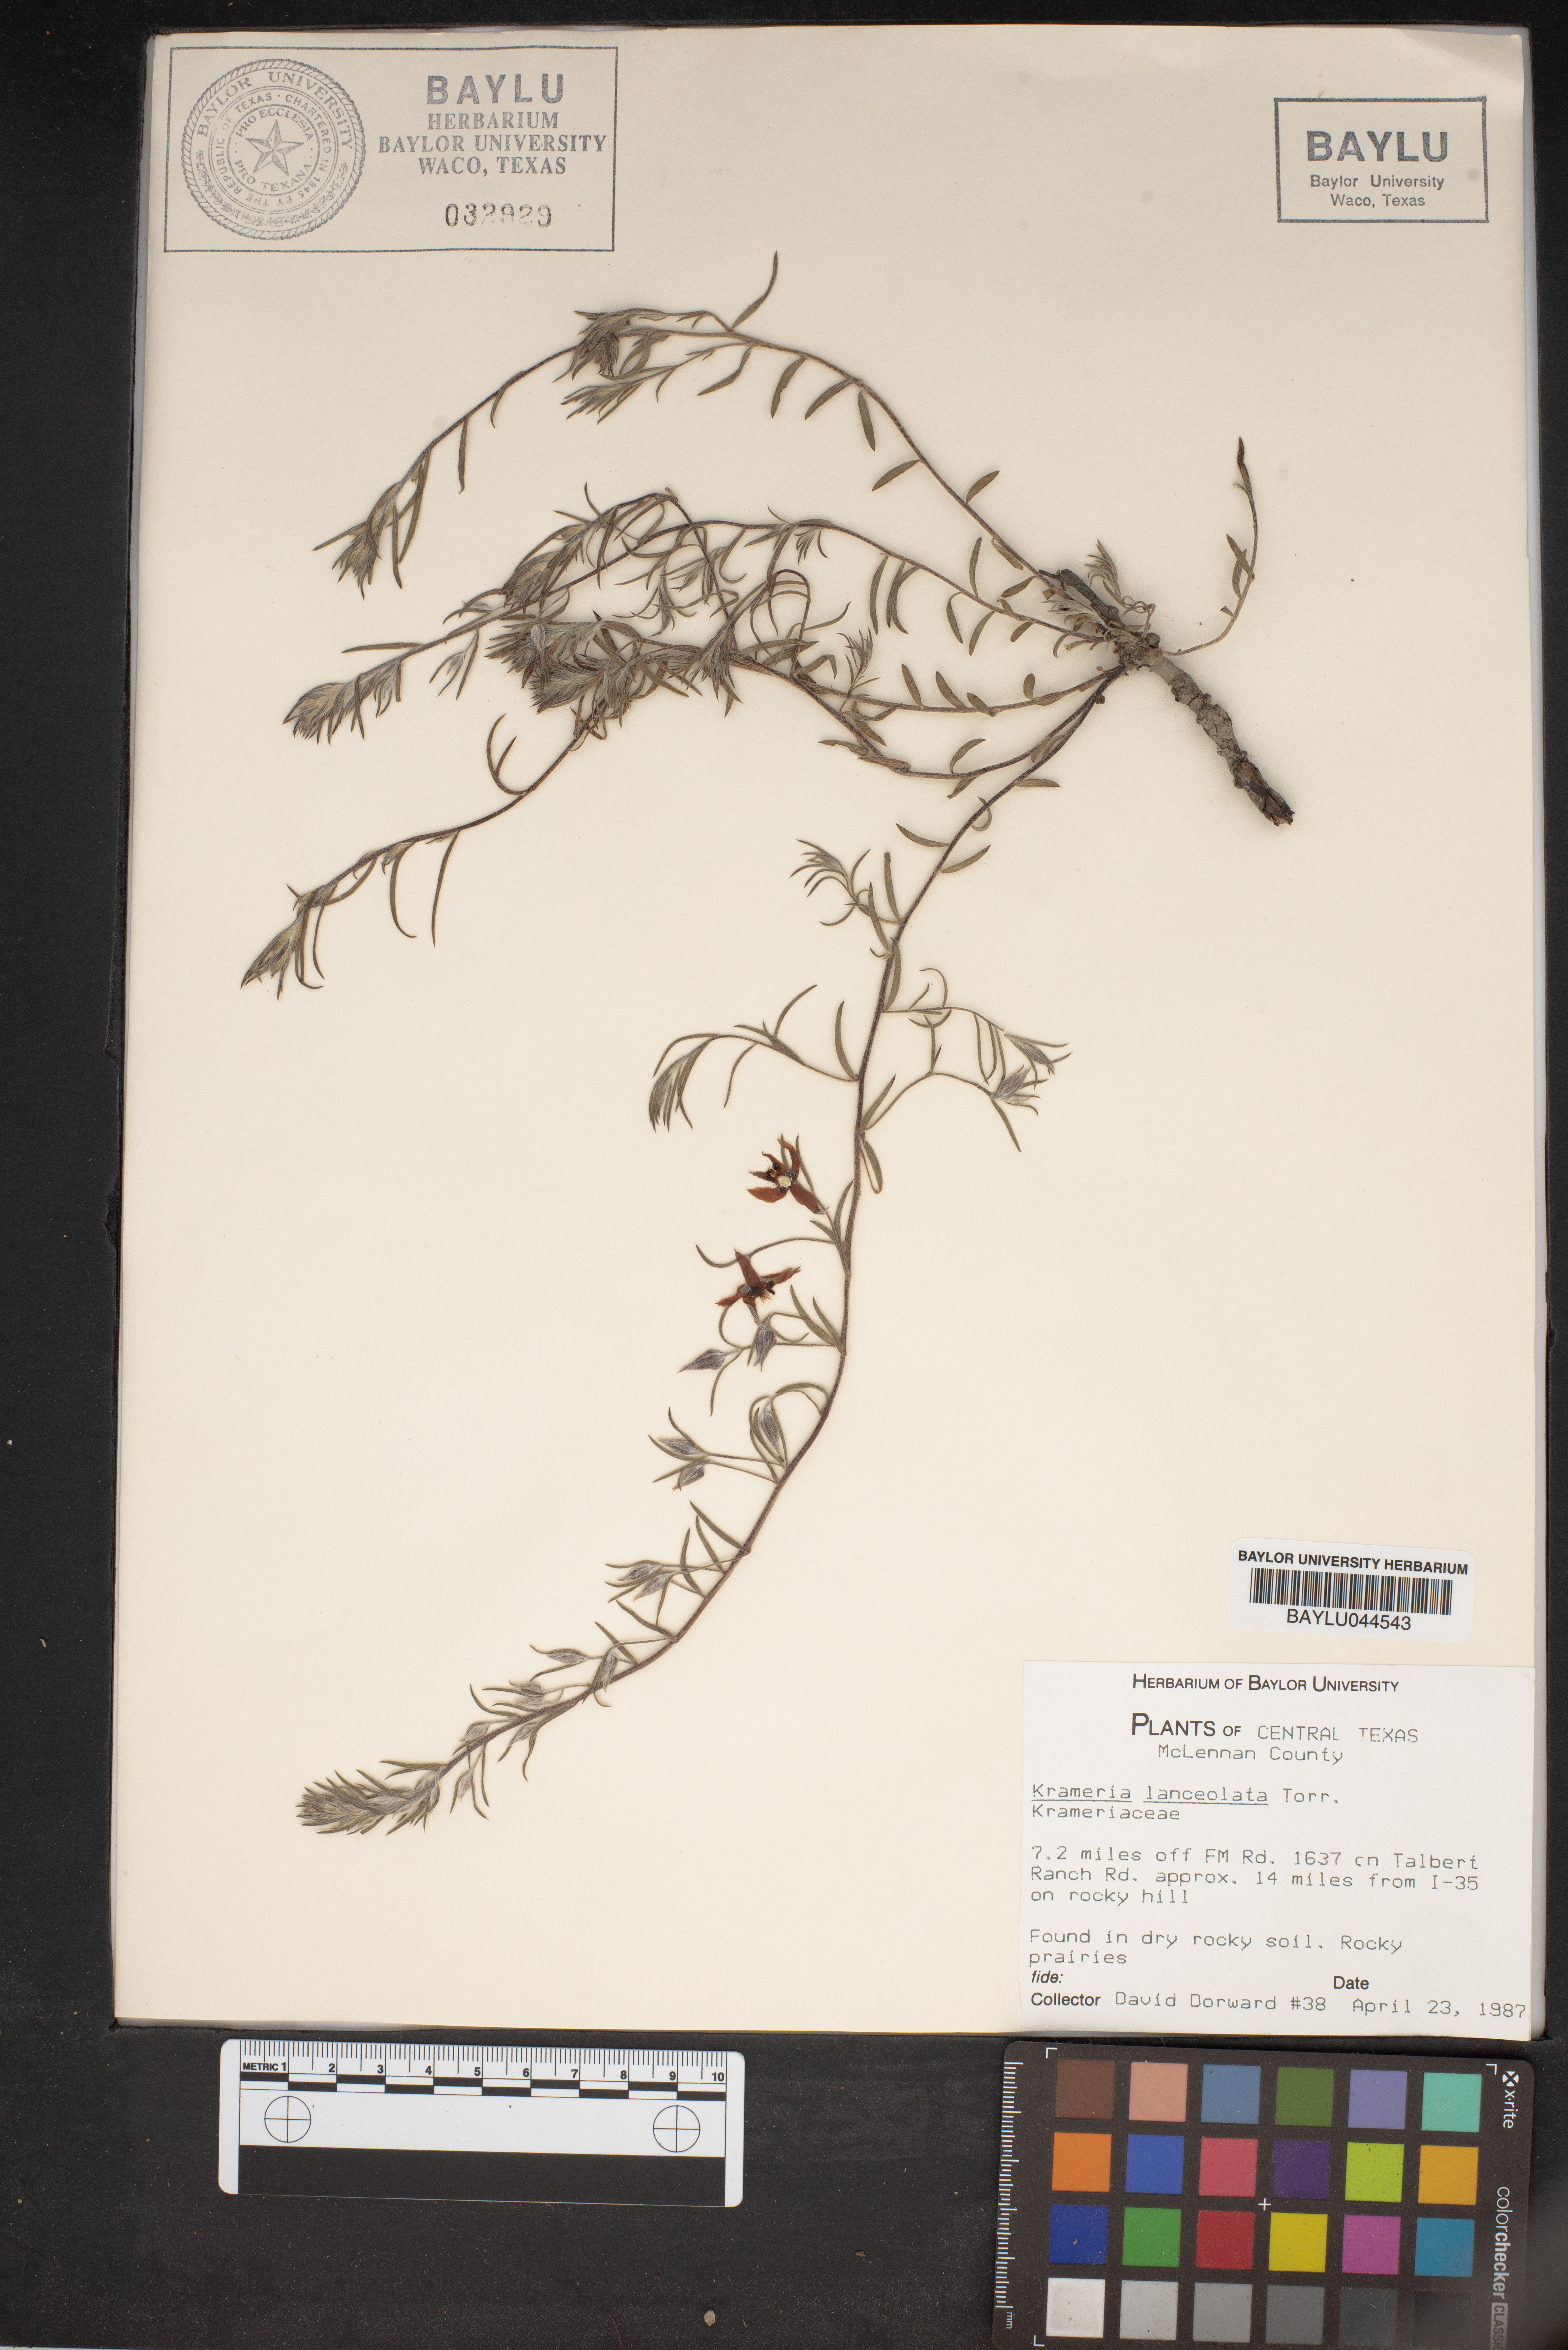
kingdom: Plantae
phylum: Tracheophyta
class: Magnoliopsida
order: Zygophyllales
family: Krameriaceae
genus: Krameria
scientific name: Krameria lanceolata
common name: Ratany
